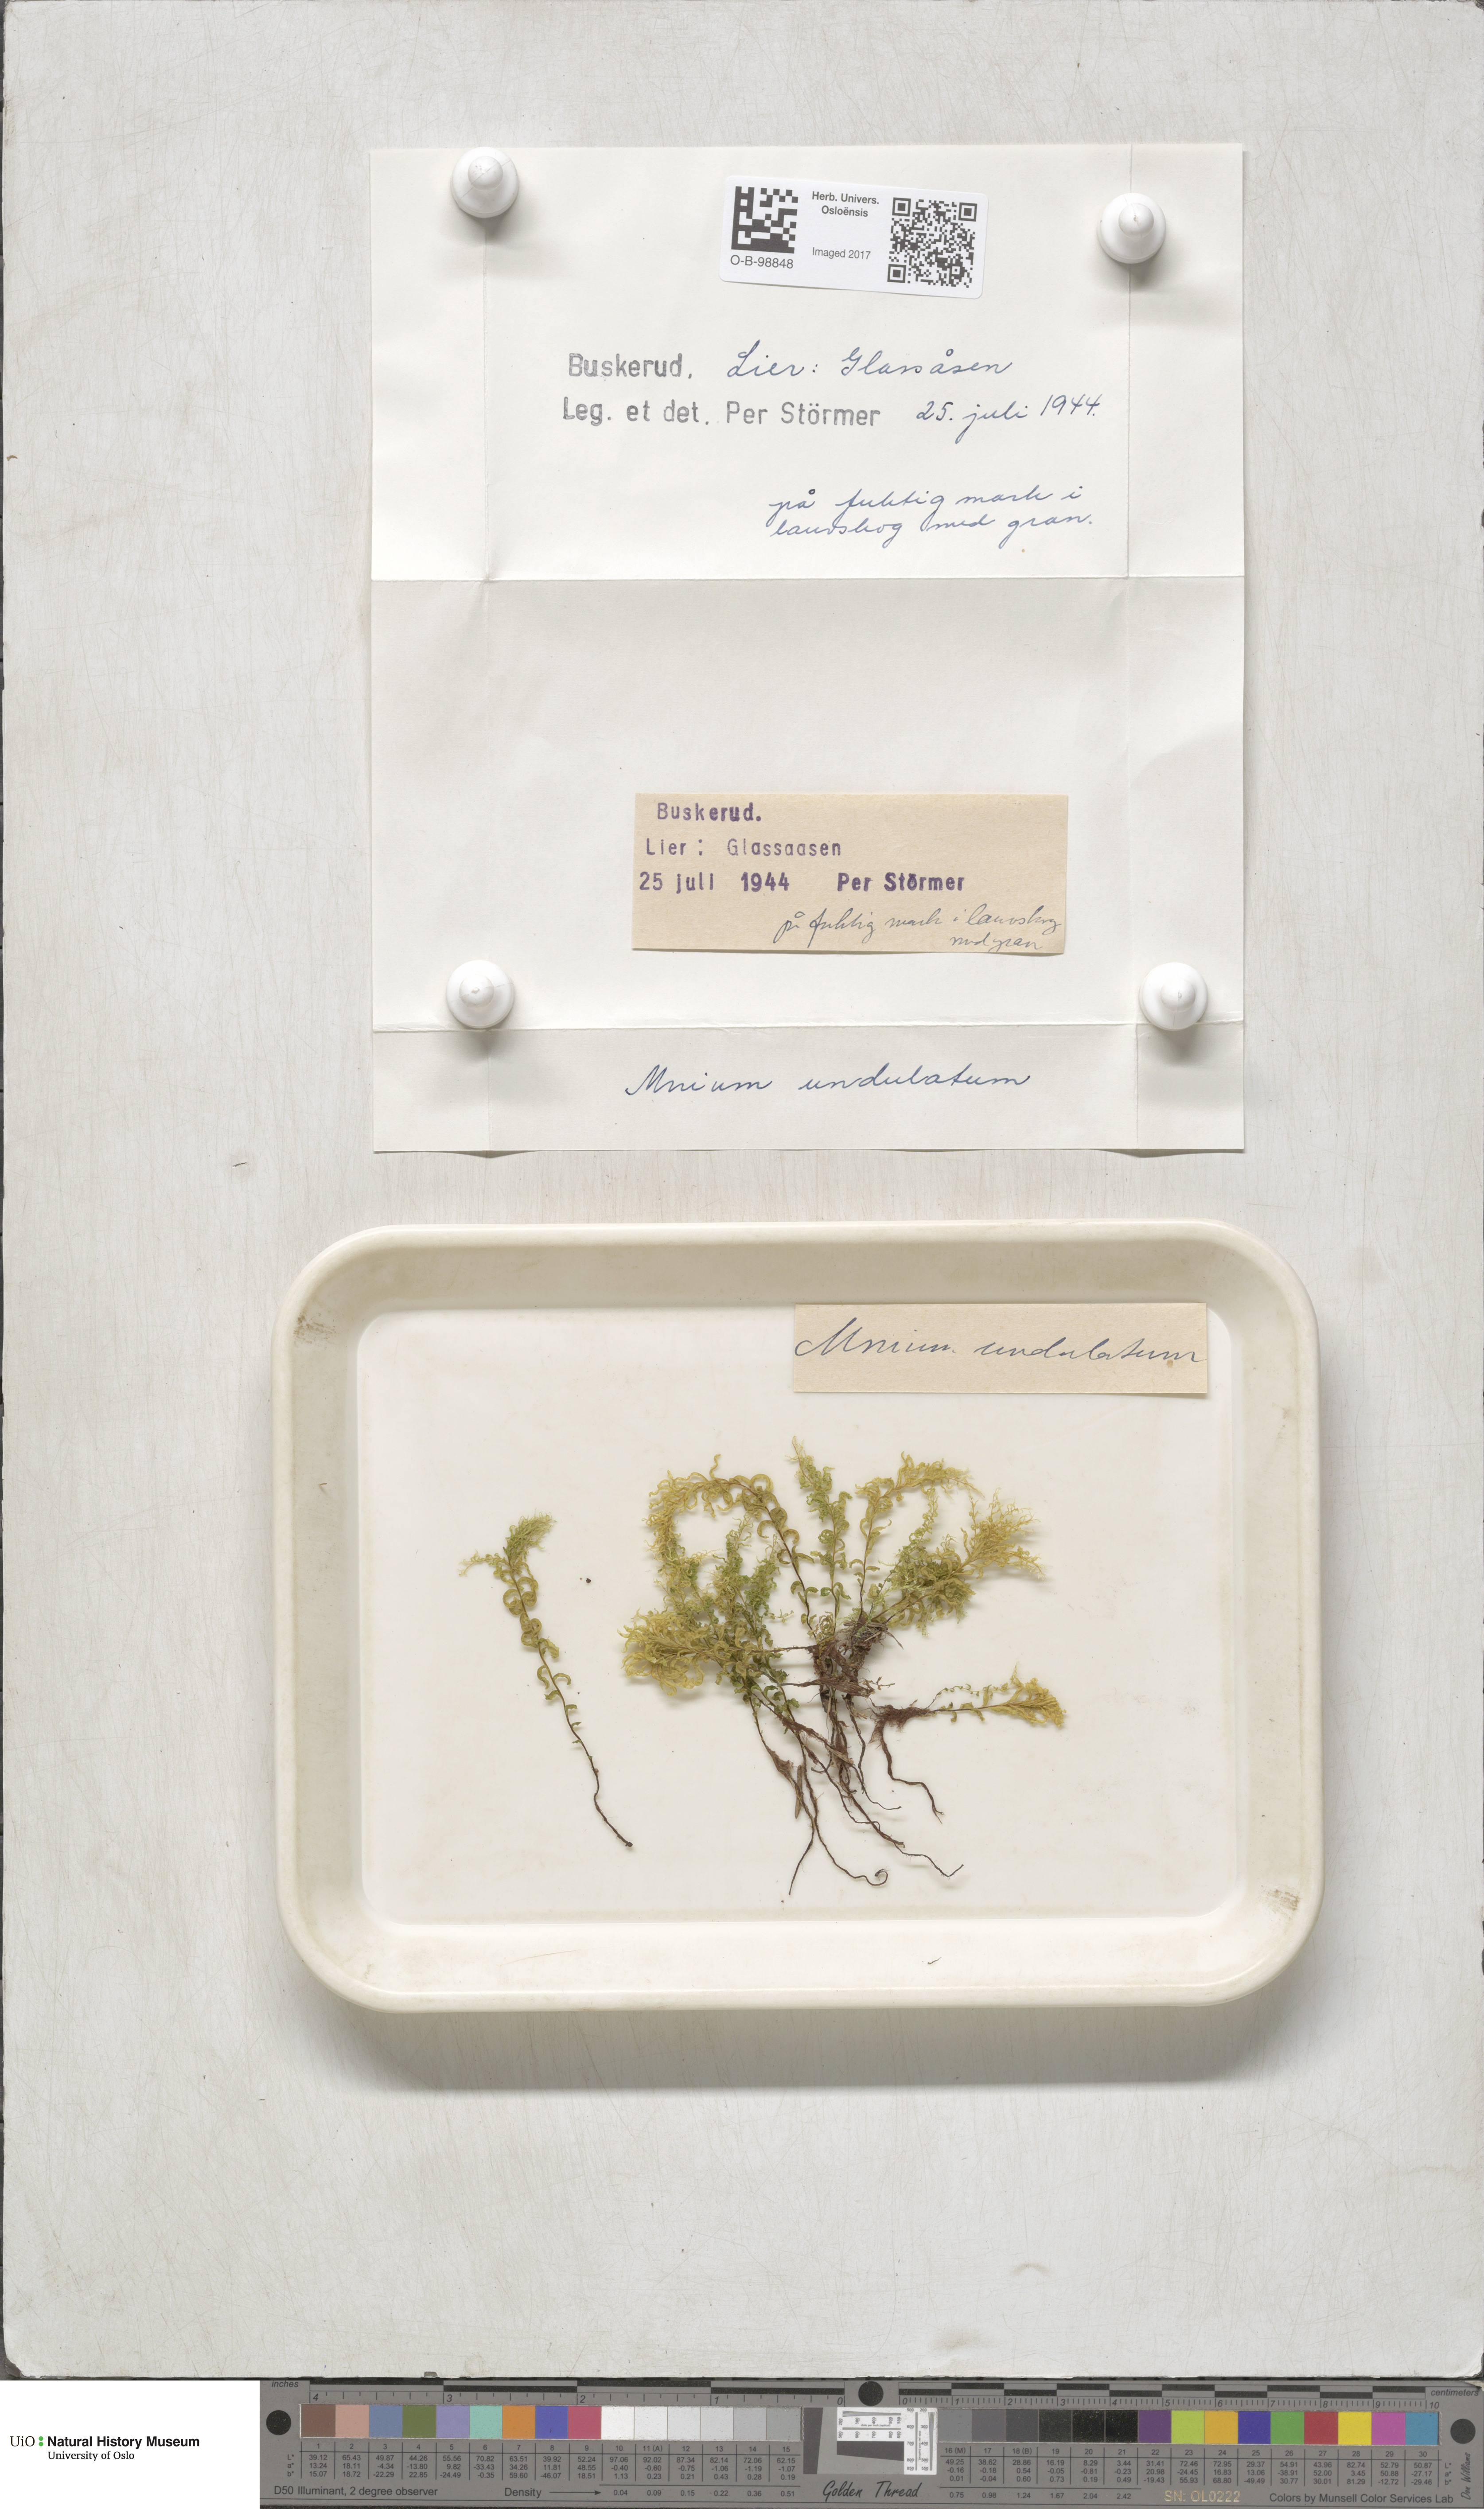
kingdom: Plantae
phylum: Bryophyta
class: Bryopsida
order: Bryales
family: Mniaceae
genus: Plagiomnium
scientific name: Plagiomnium undulatum
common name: Hart's-tongue thyme-moss
